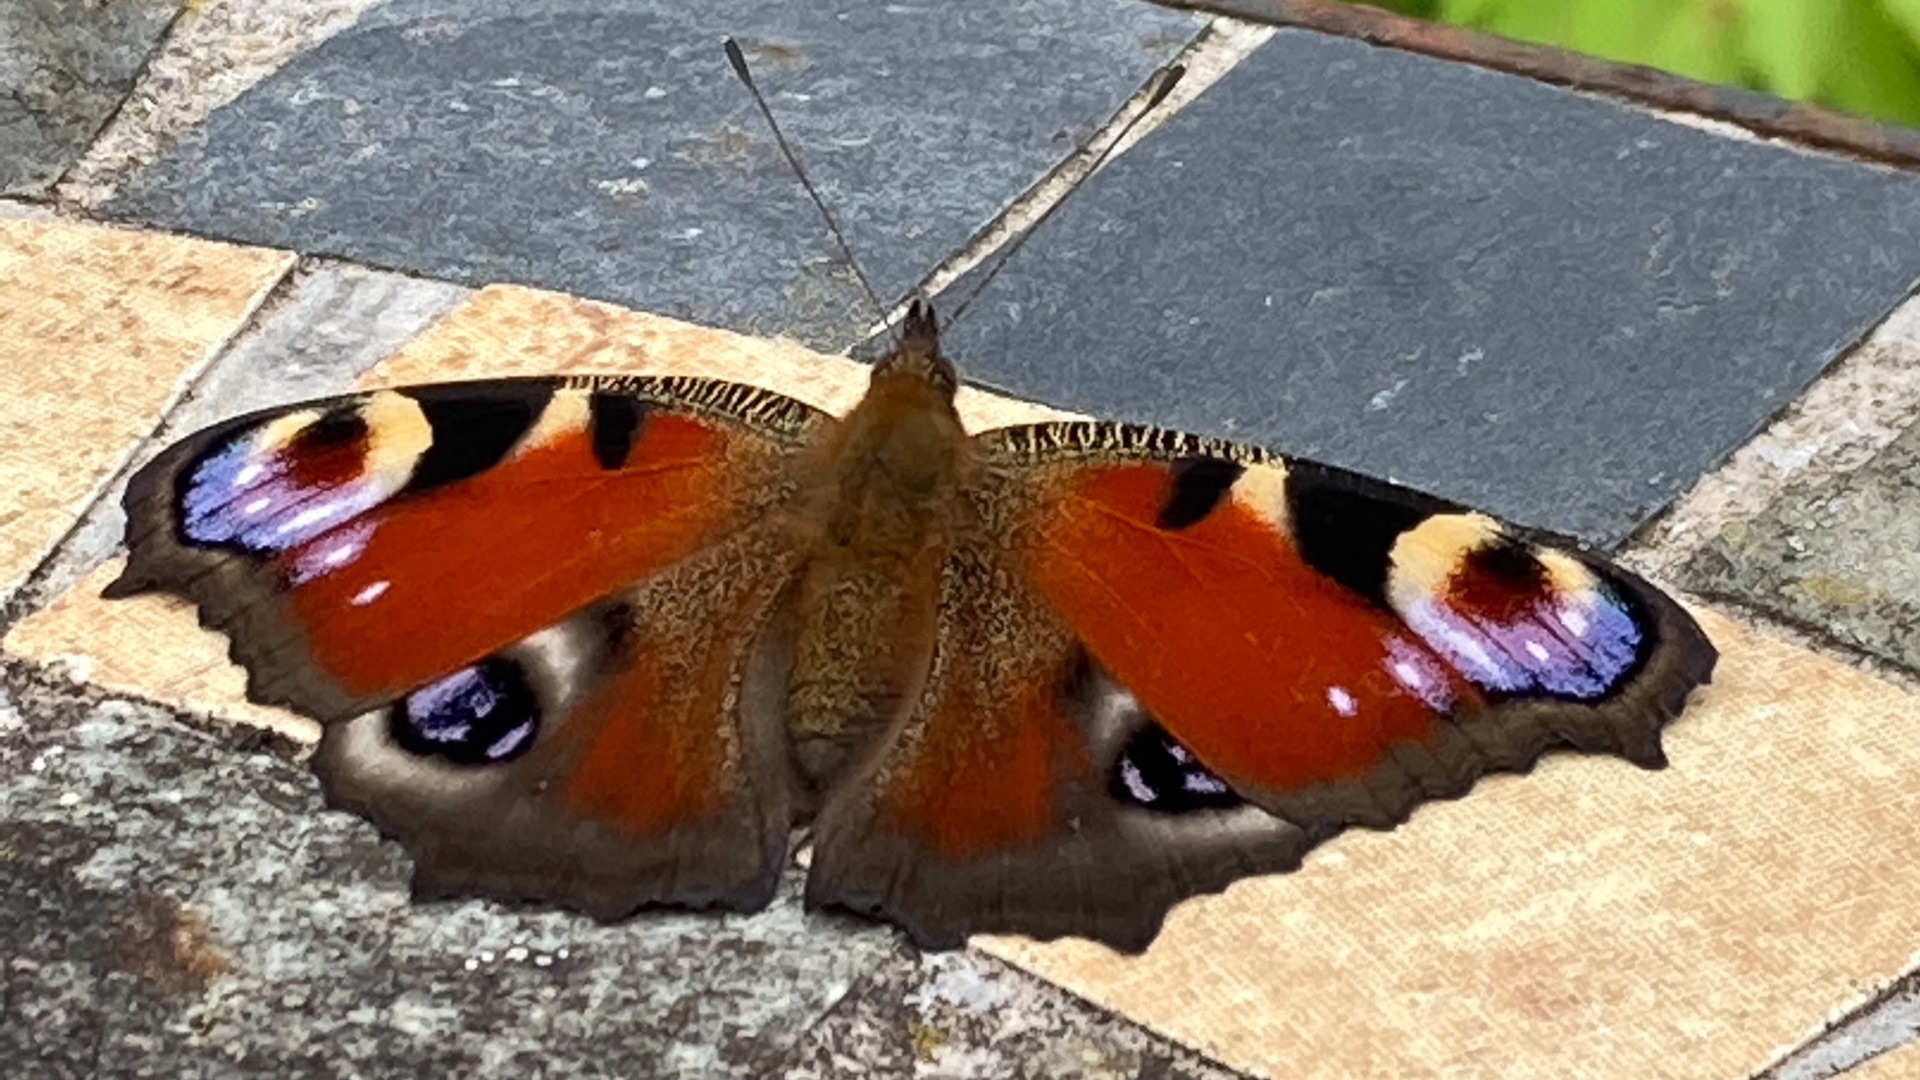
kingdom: Animalia
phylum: Arthropoda
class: Insecta
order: Lepidoptera
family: Nymphalidae
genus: Aglais
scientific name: Aglais io
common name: Dagpåfugleøje
